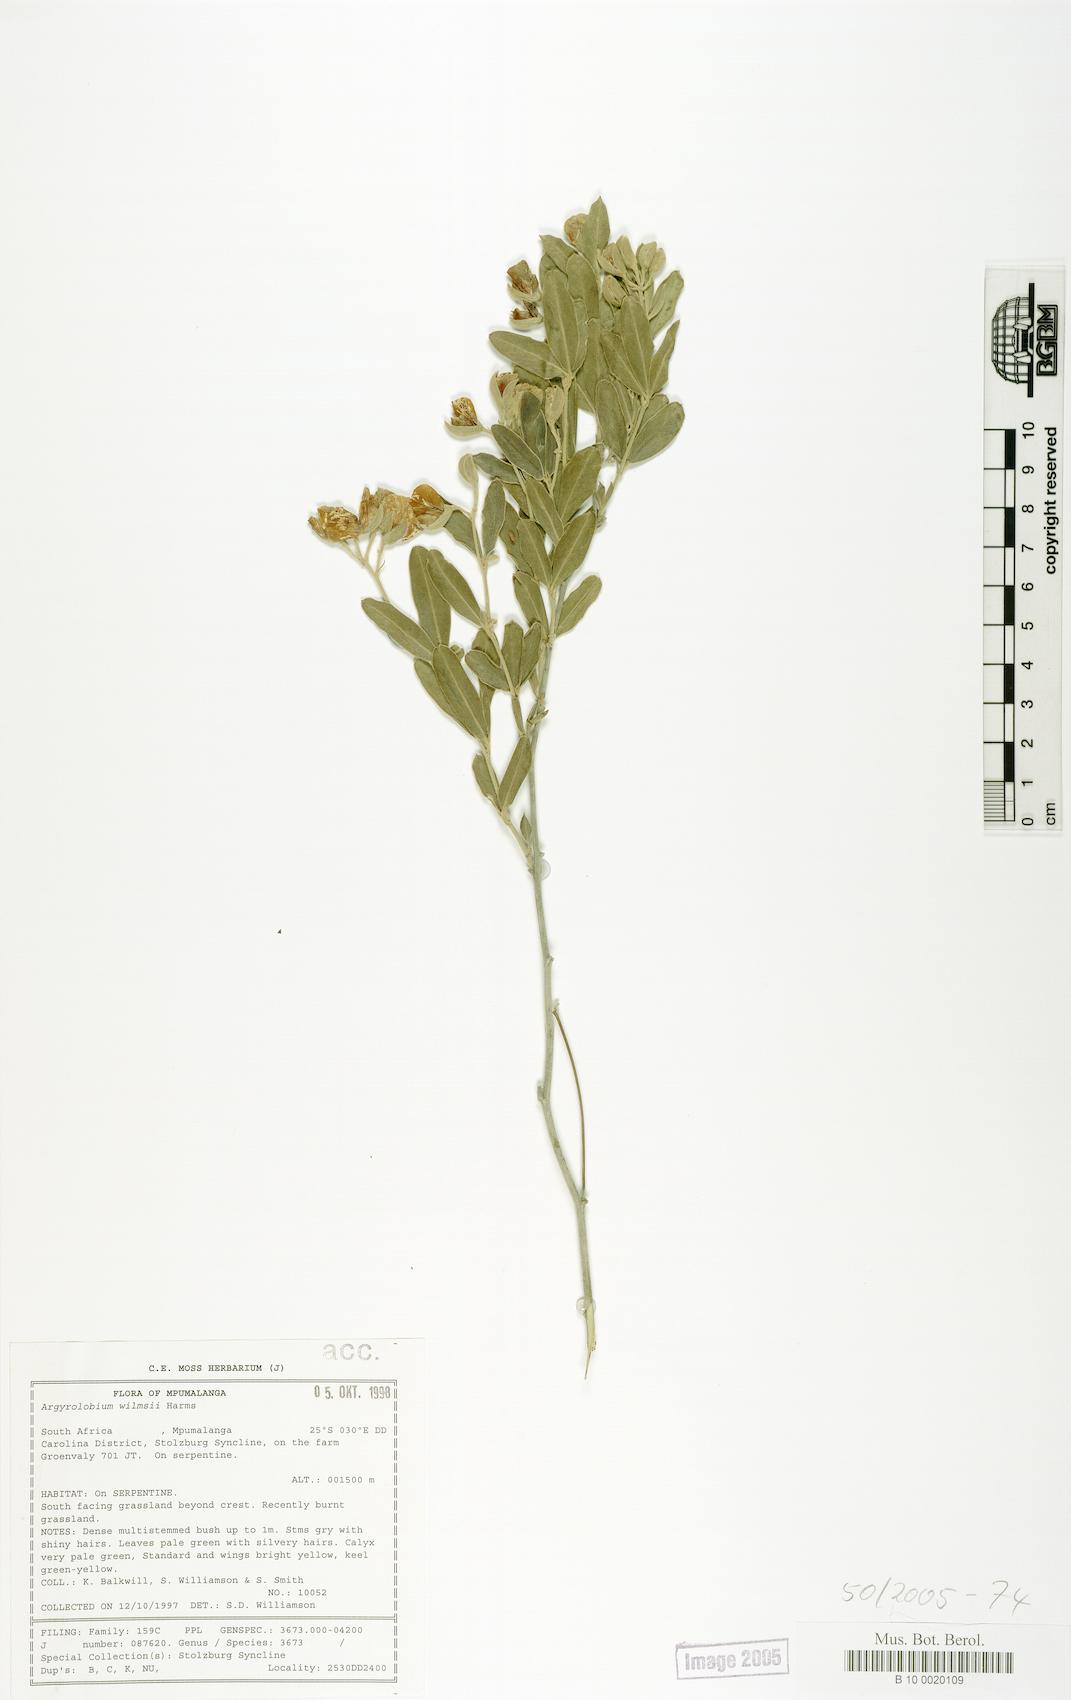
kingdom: Plantae
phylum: Tracheophyta
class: Magnoliopsida
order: Fabales
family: Fabaceae
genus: Argyrolobium
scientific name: Argyrolobium wilmsii
